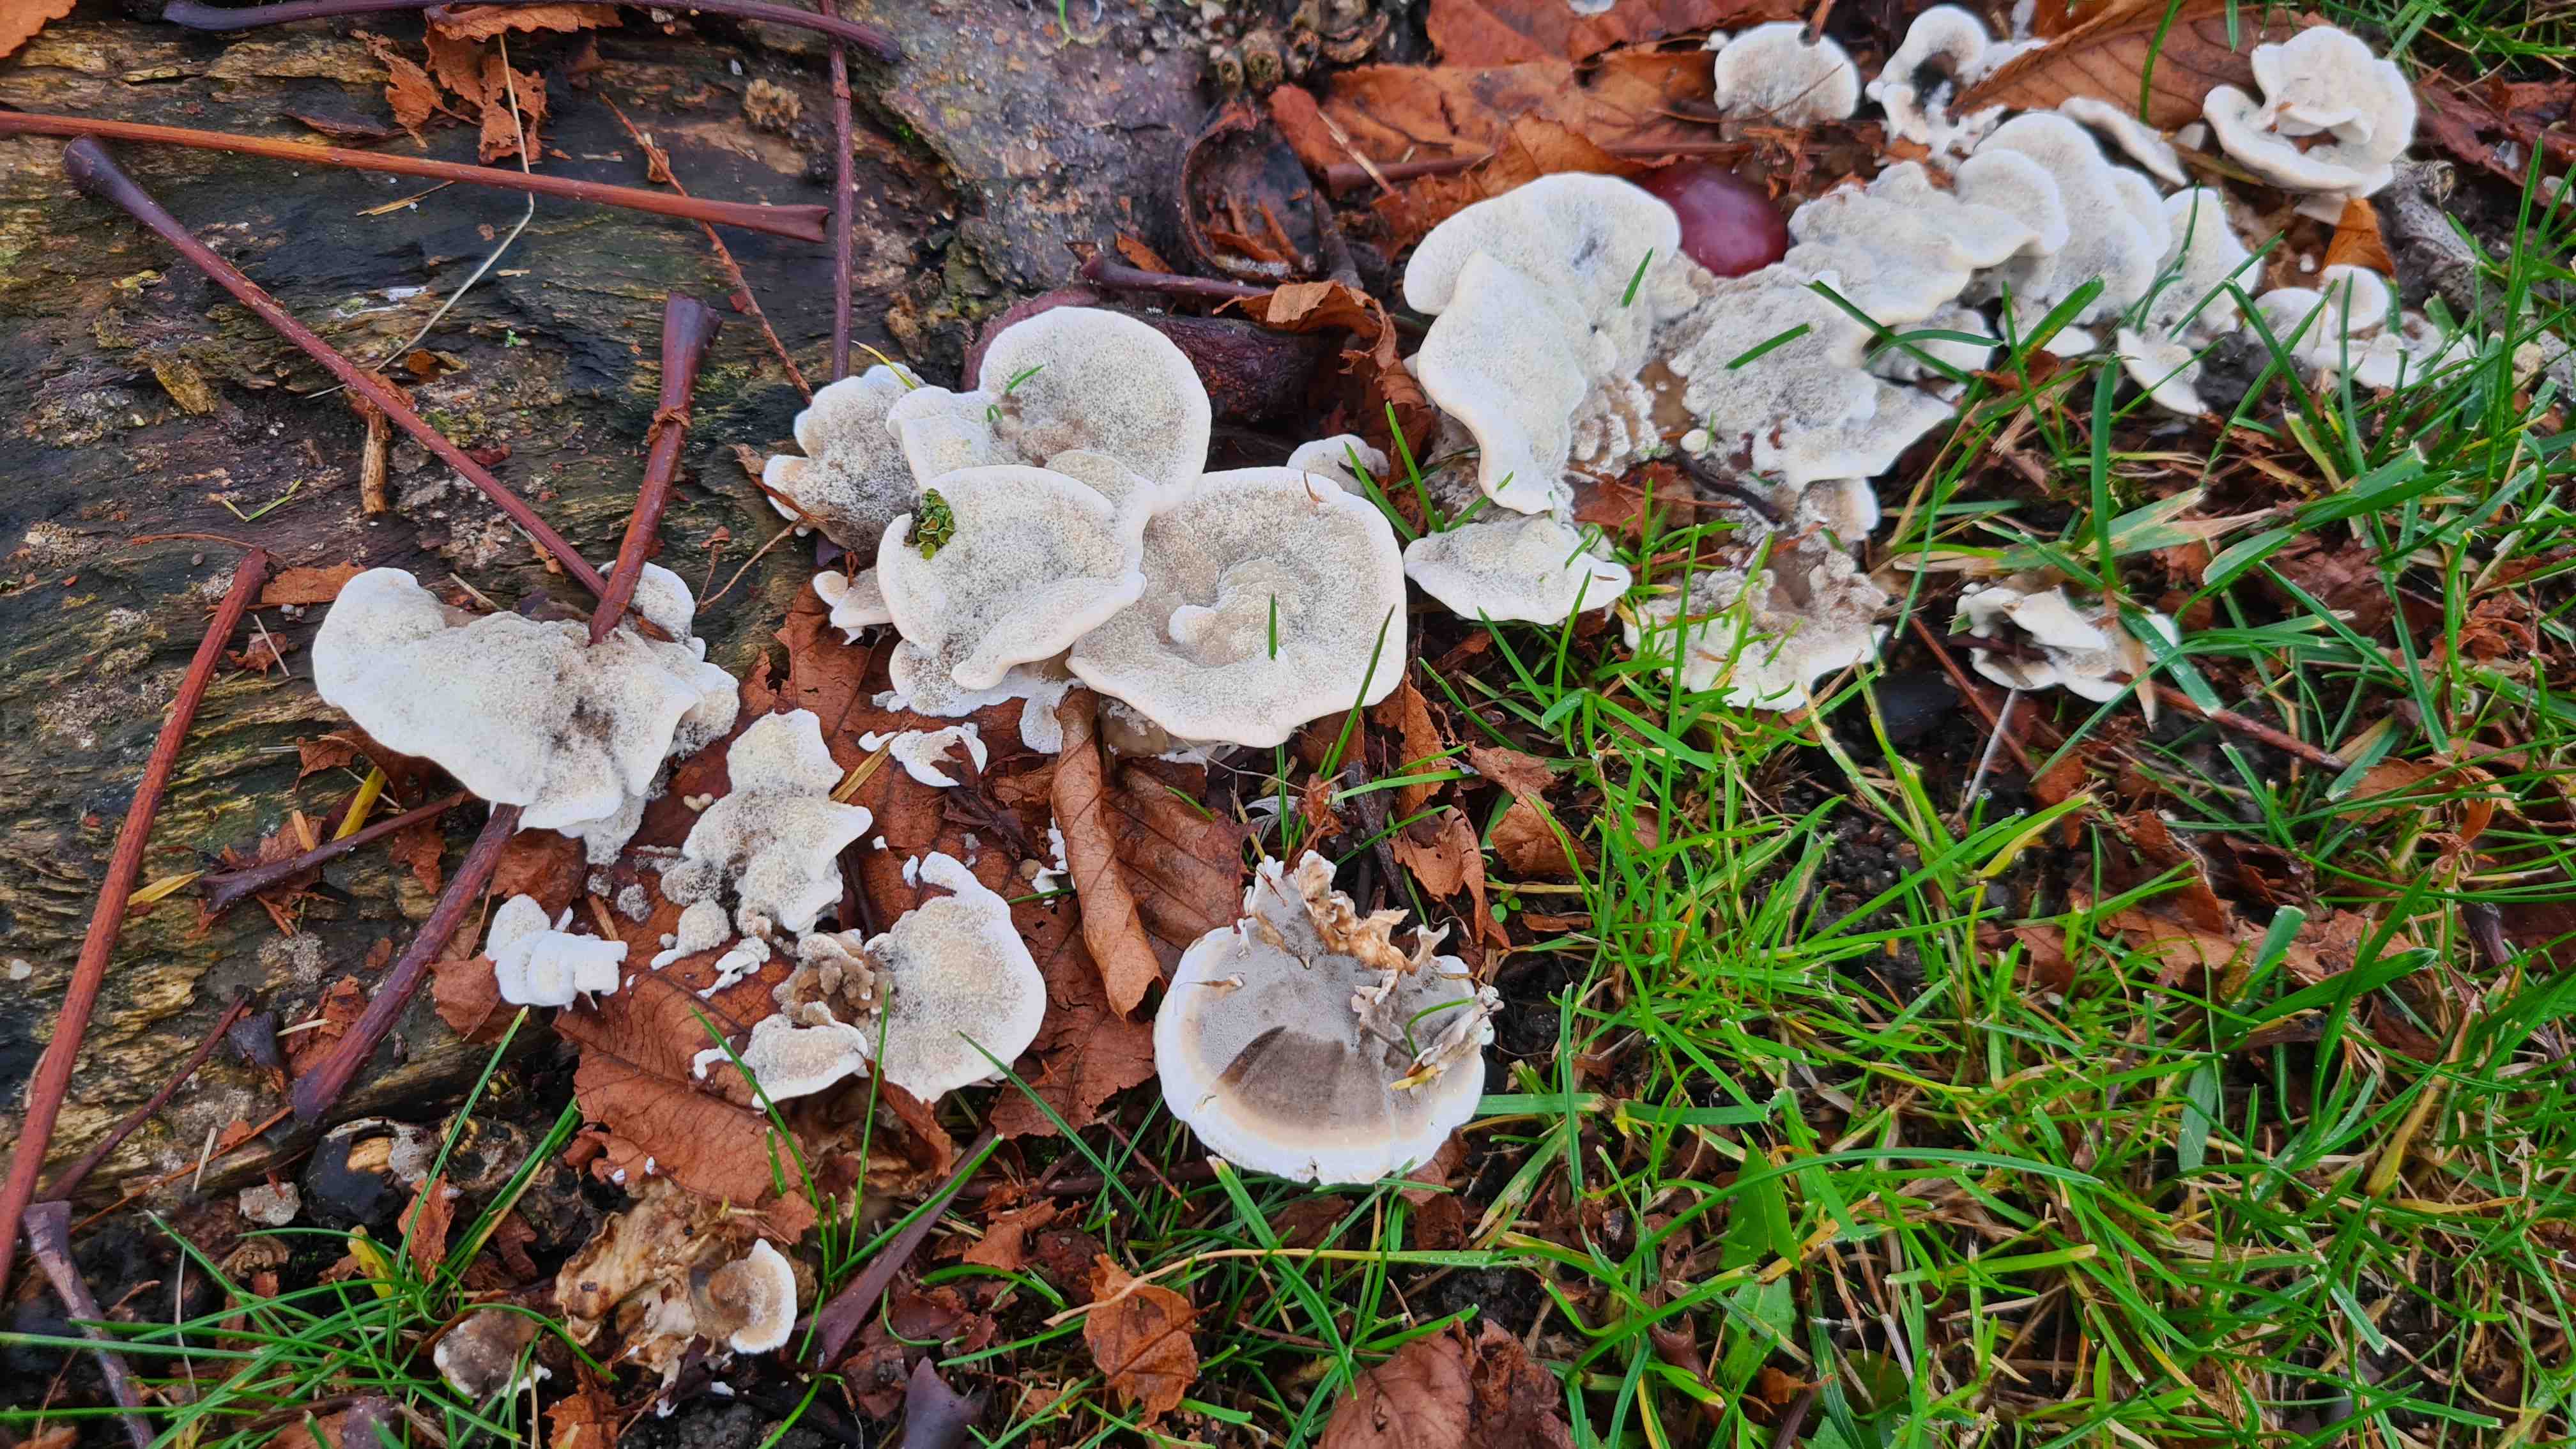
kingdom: Fungi
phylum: Basidiomycota
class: Agaricomycetes
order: Polyporales
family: Phanerochaetaceae
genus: Bjerkandera
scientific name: Bjerkandera adusta
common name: sveden sodporesvamp
